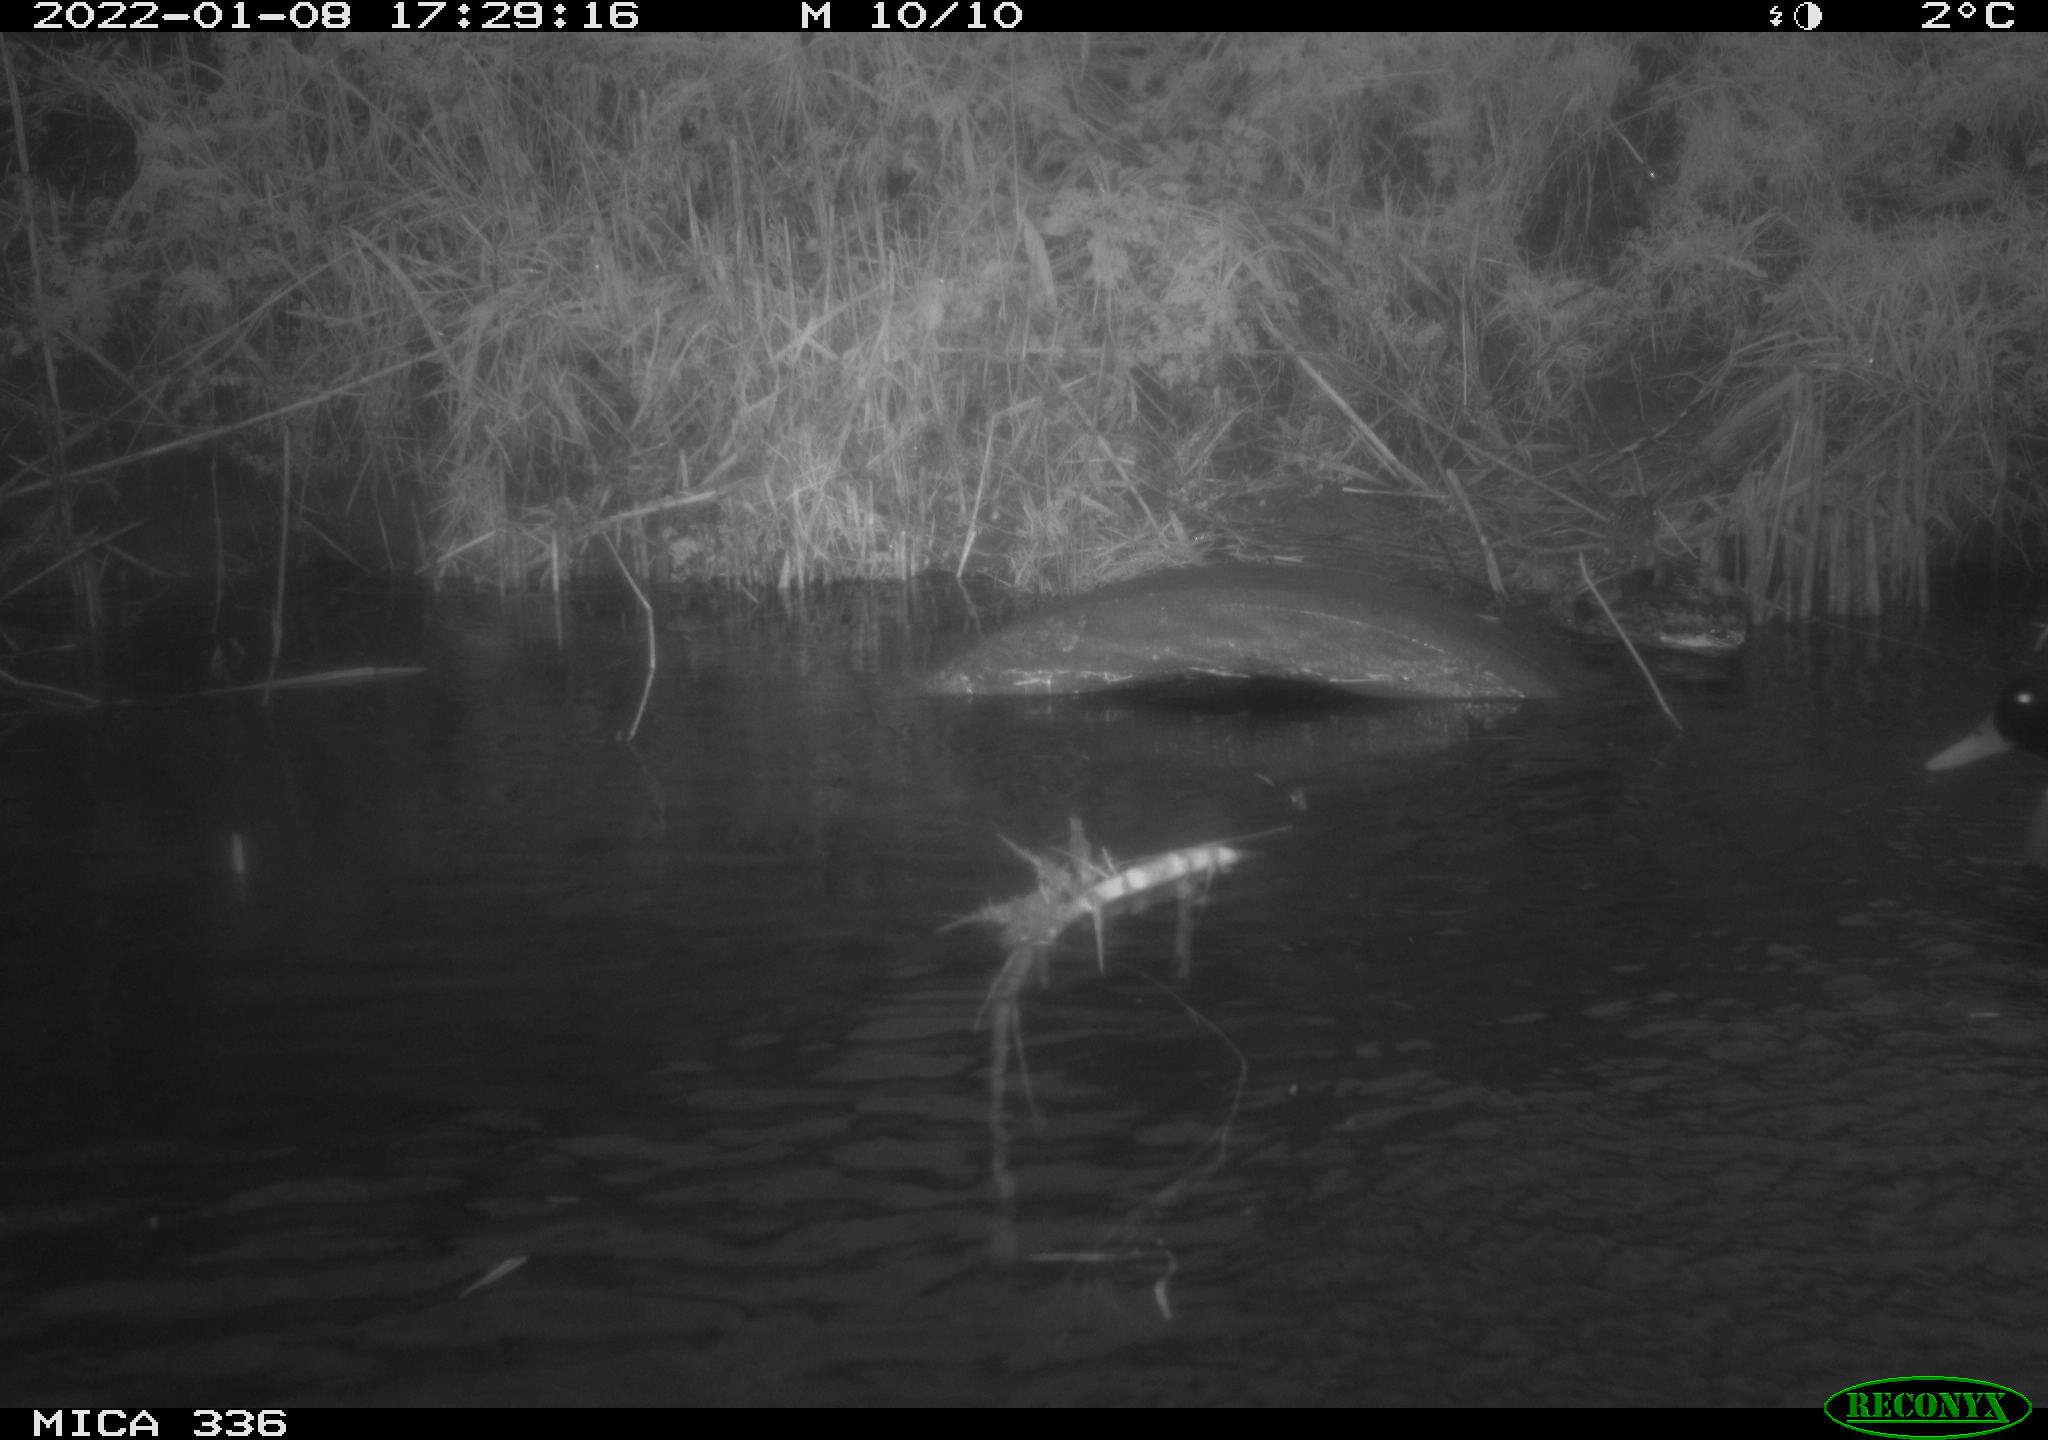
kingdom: Animalia
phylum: Chordata
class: Aves
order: Anseriformes
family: Anatidae
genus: Anas
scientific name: Anas platyrhynchos
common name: Mallard
